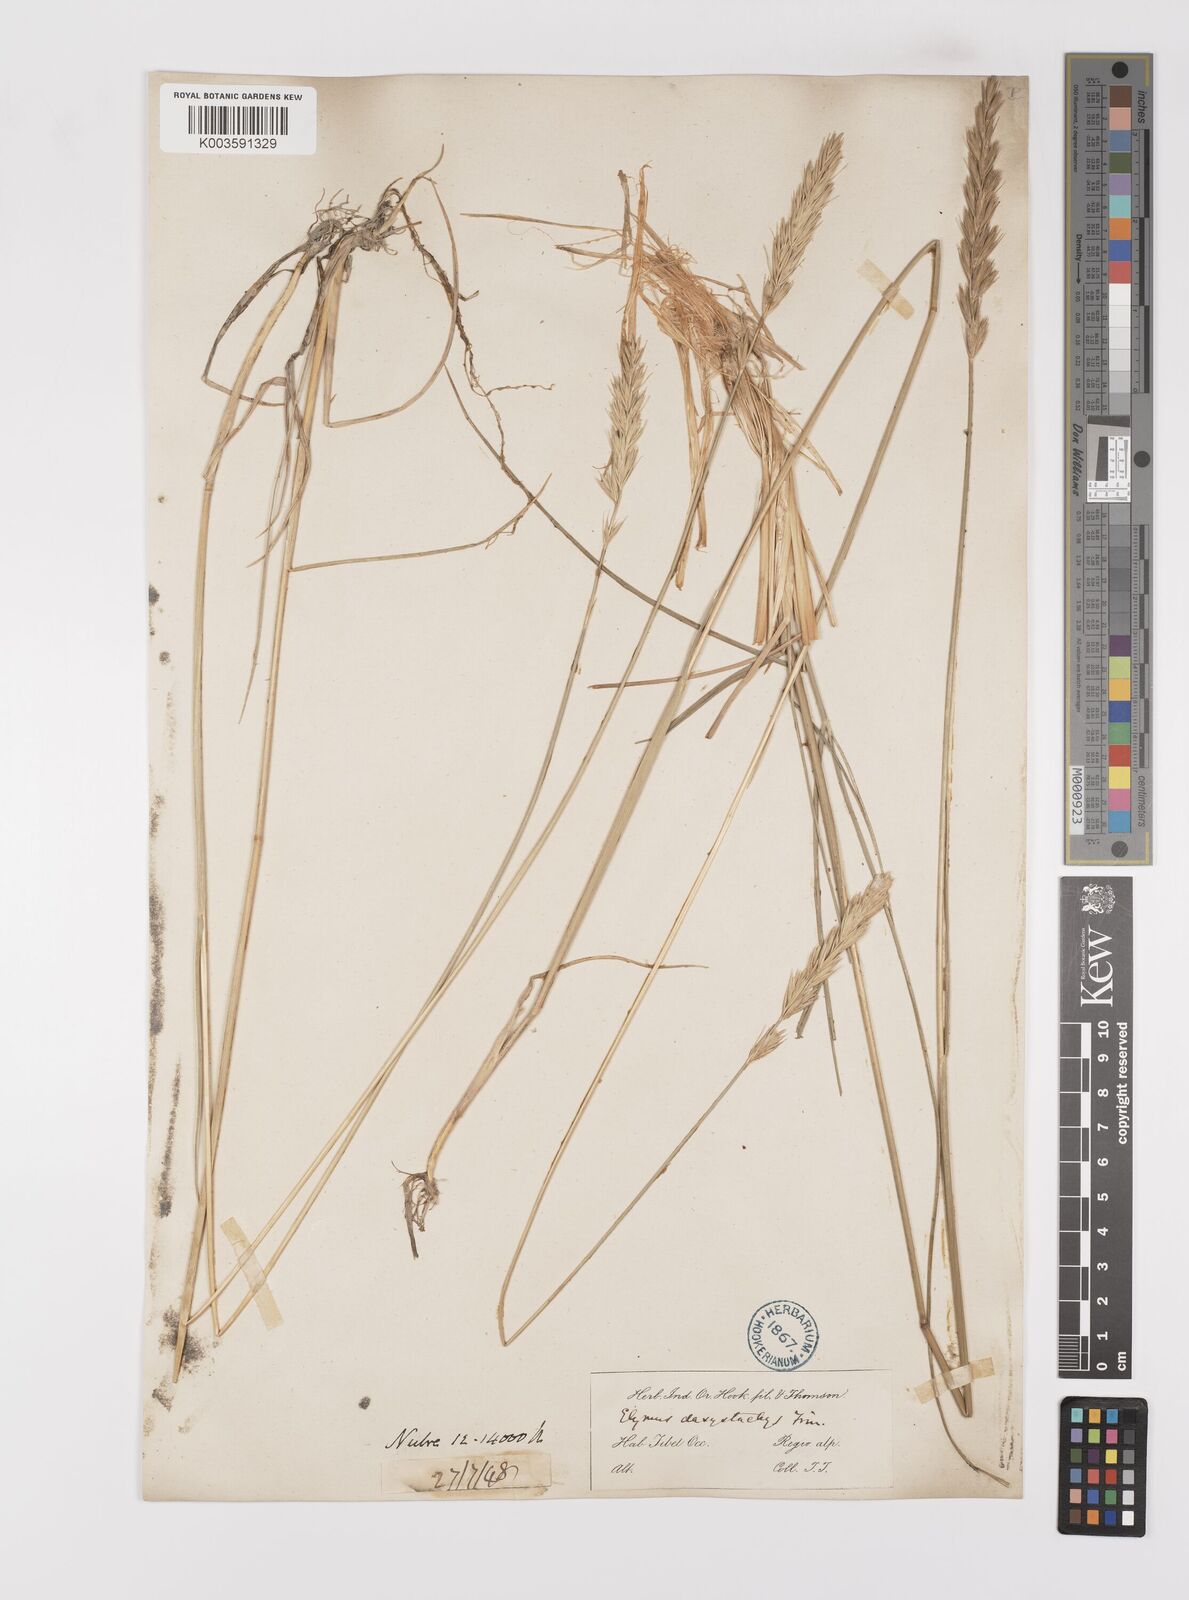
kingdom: Plantae
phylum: Tracheophyta
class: Liliopsida
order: Poales
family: Poaceae
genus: Leymus
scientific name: Leymus secalinus
